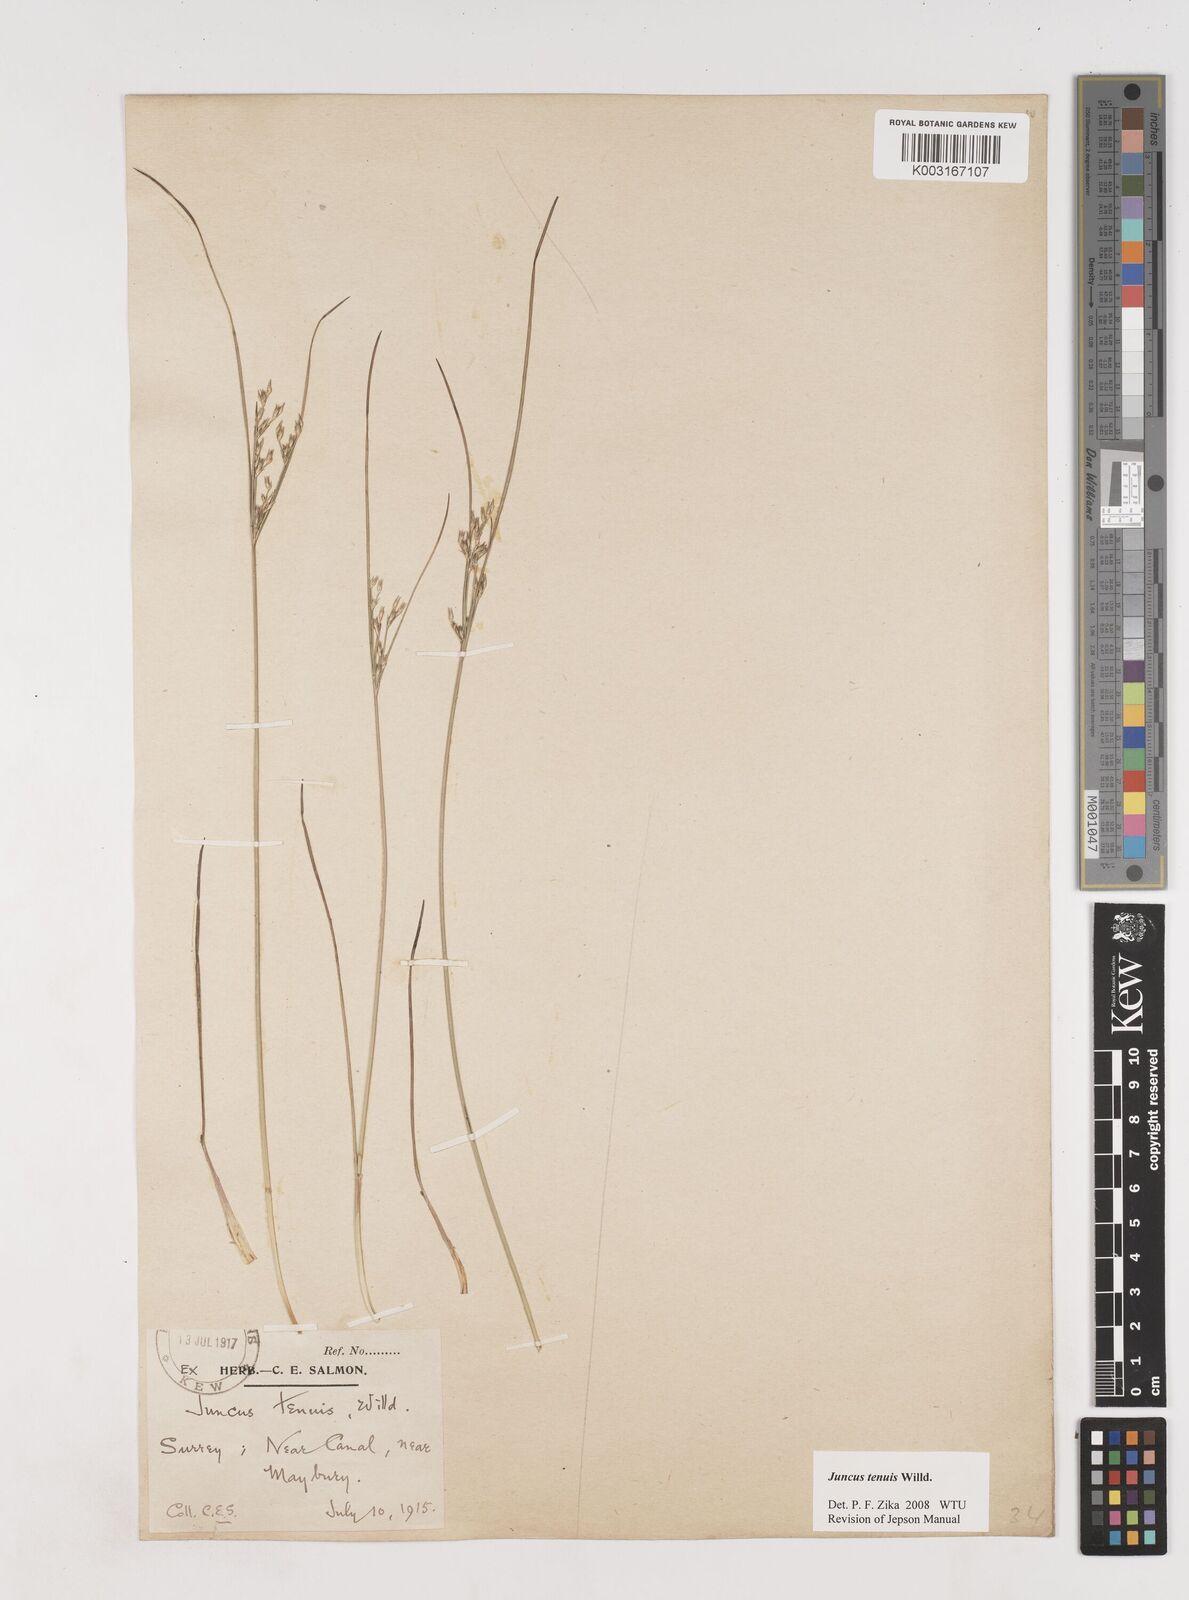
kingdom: Plantae
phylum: Tracheophyta
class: Liliopsida
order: Poales
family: Juncaceae
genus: Juncus
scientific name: Juncus occidentalis
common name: Western rush
